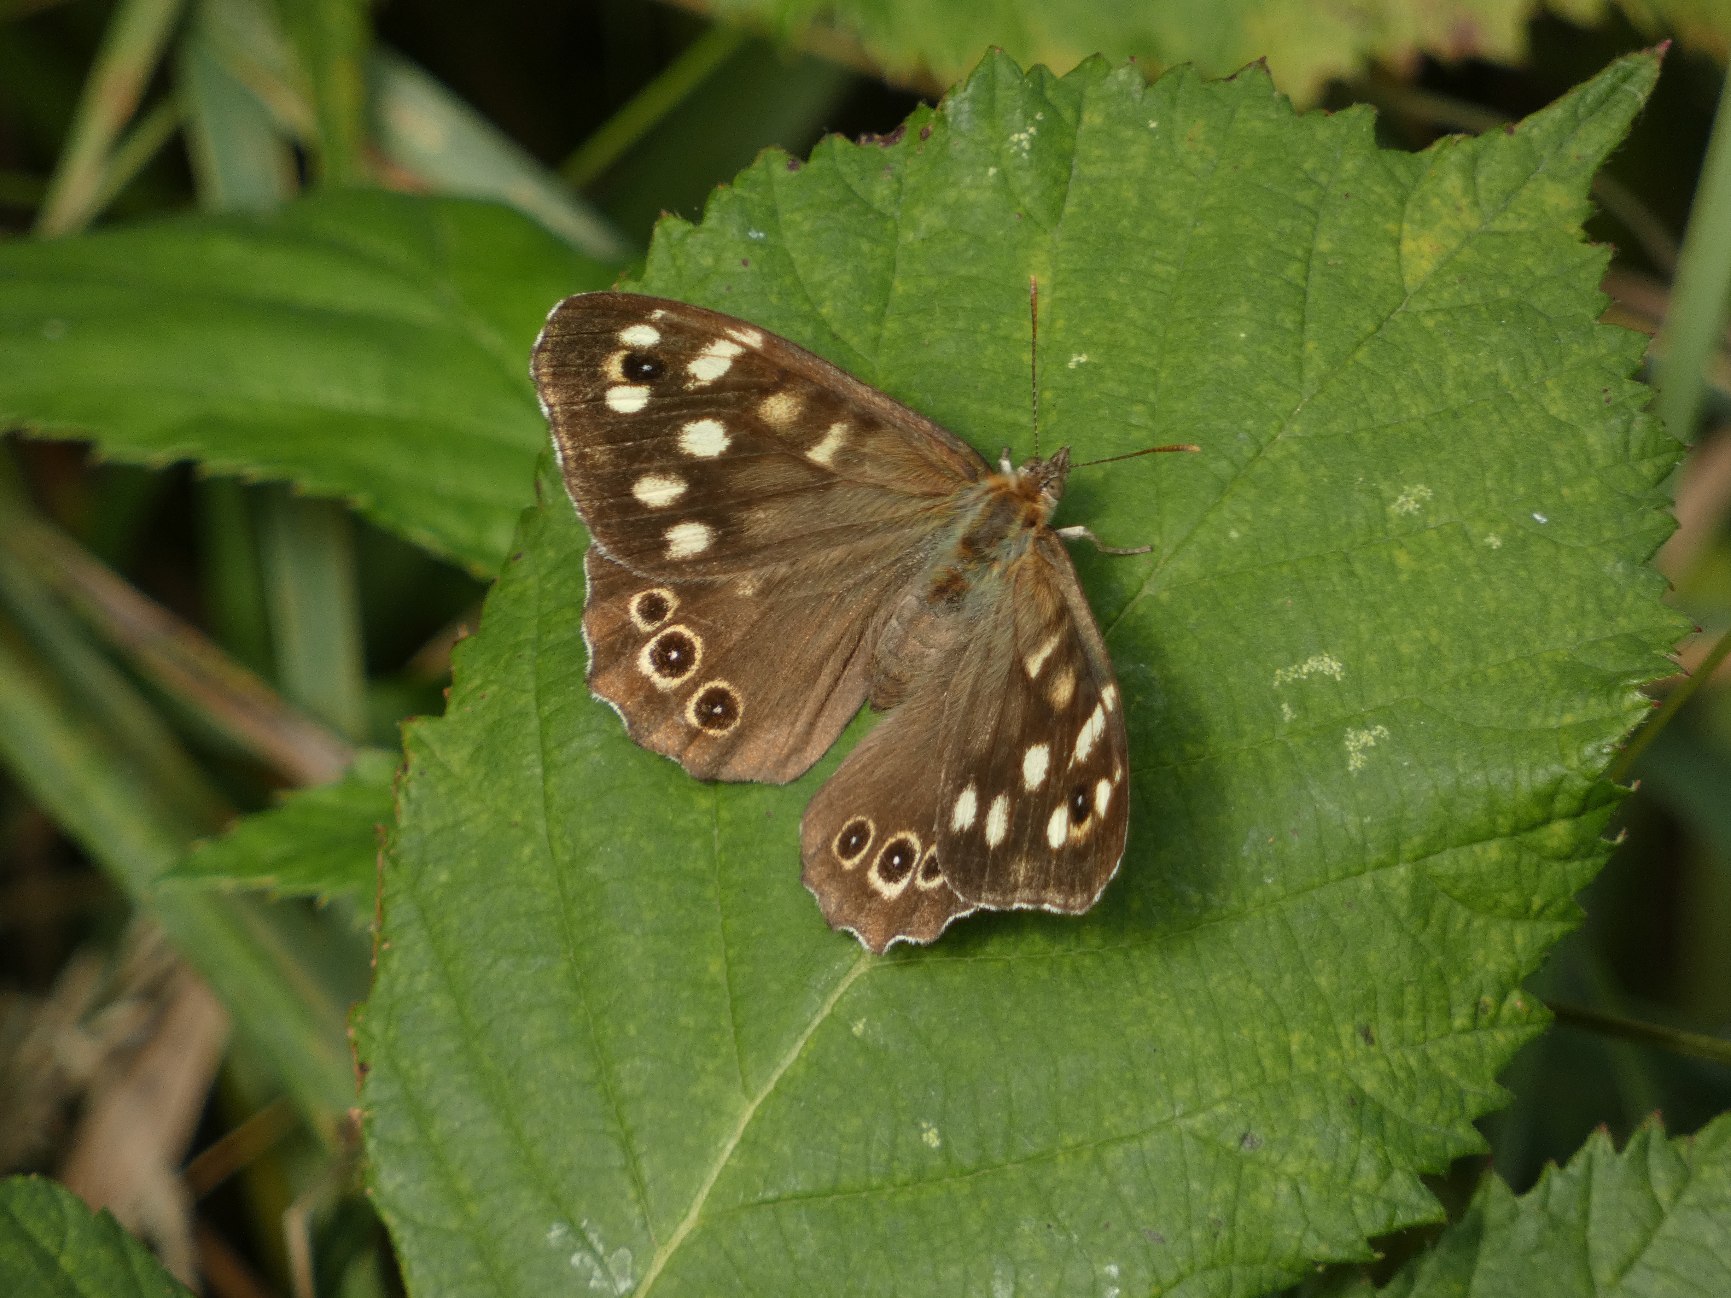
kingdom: Animalia
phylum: Arthropoda
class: Insecta
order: Lepidoptera
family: Nymphalidae
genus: Pararge
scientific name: Pararge aegeria
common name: Skovrandøje
